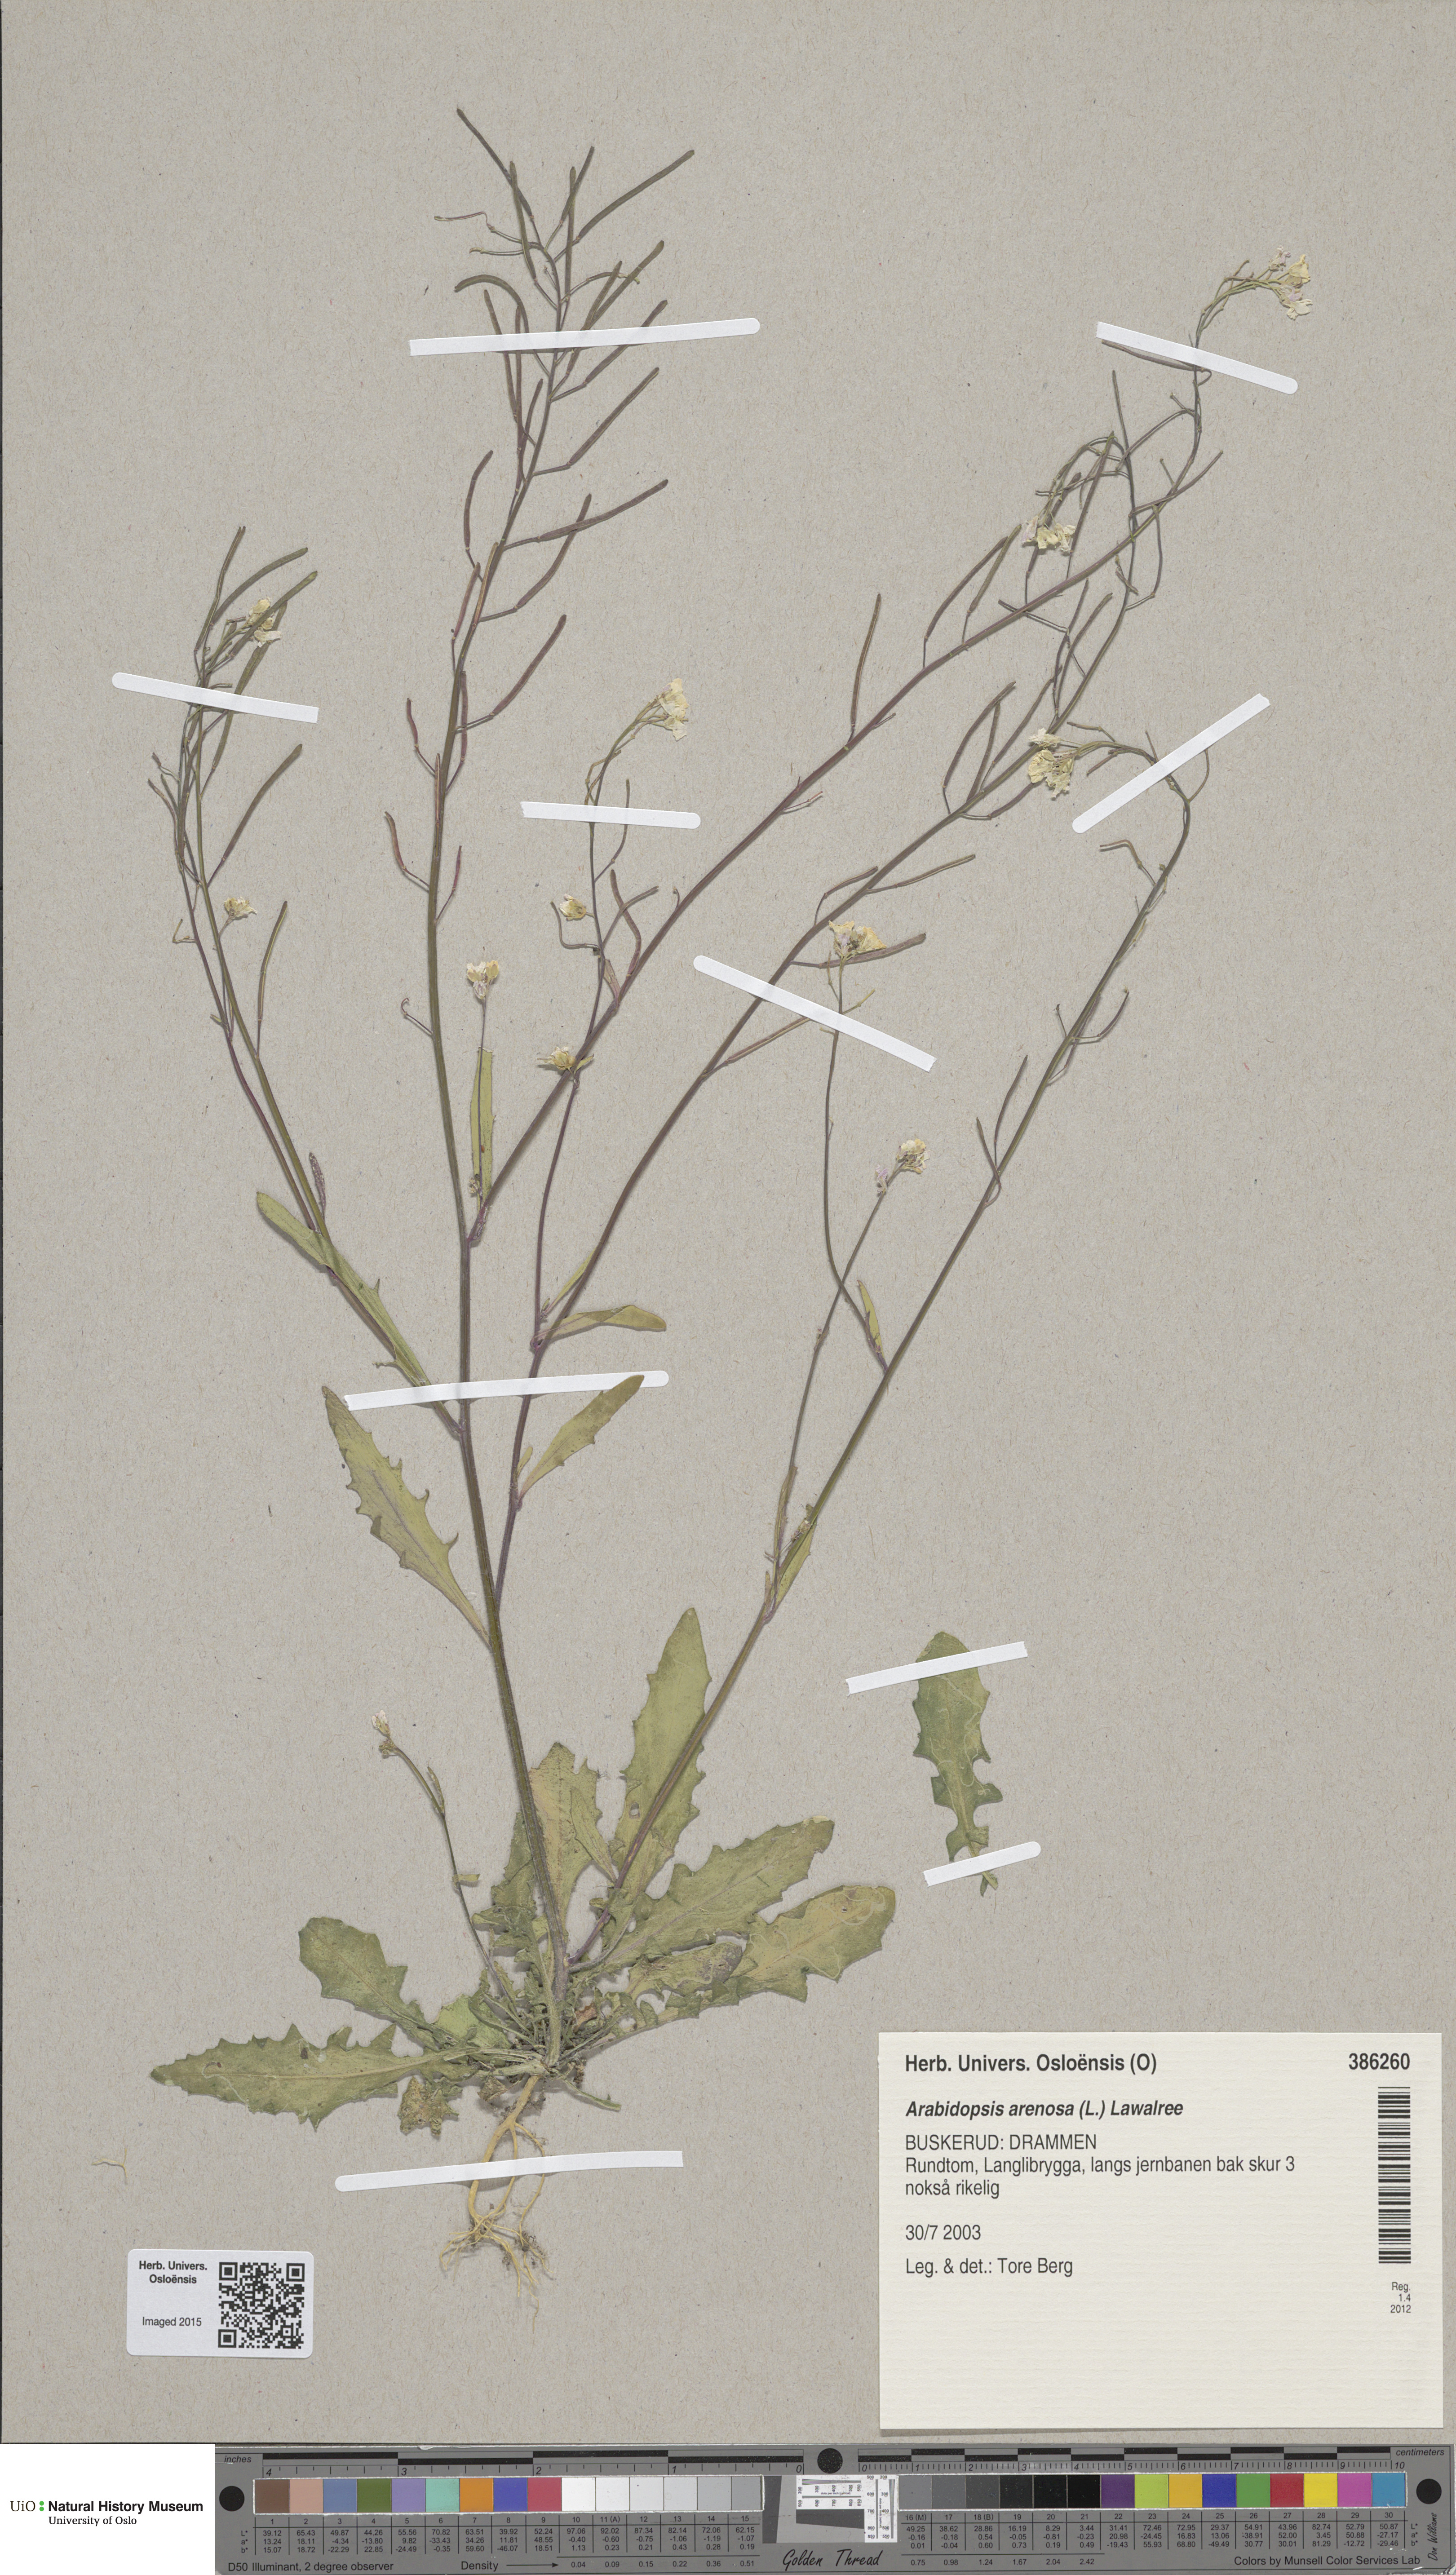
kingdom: Plantae
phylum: Tracheophyta
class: Magnoliopsida
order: Brassicales
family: Brassicaceae
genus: Arabidopsis
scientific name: Arabidopsis arenosa
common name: Sand rock-cress
